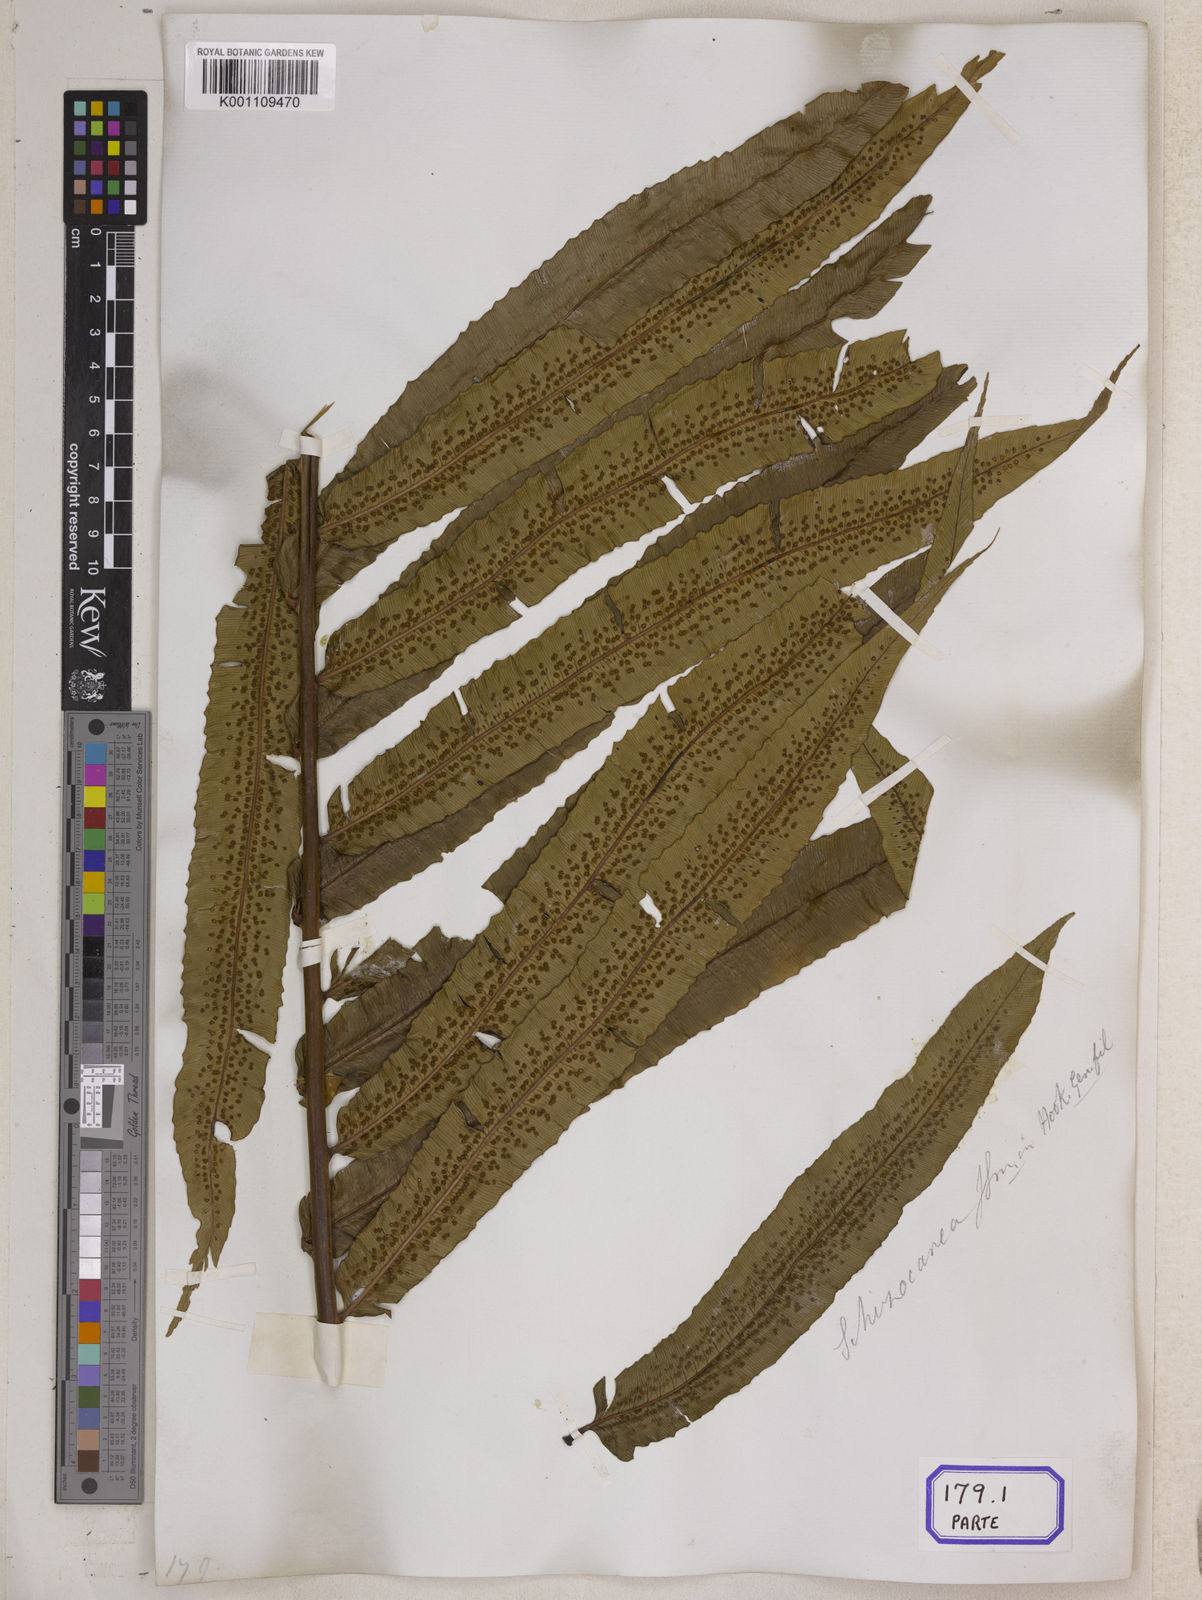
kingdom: Plantae
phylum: Tracheophyta
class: Polypodiopsida
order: Cyatheales
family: Cyatheaceae
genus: Sphaeropteris
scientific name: Sphaeropteris moluccana
